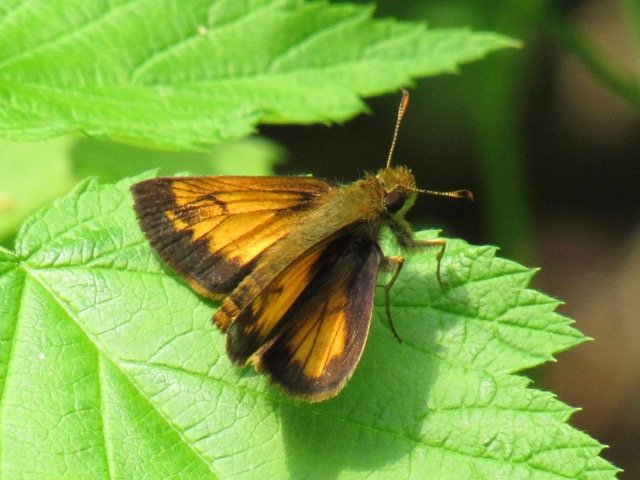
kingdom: Animalia
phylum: Arthropoda
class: Insecta
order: Lepidoptera
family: Hesperiidae
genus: Lon
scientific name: Lon hobomok
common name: Hobomok Skipper
